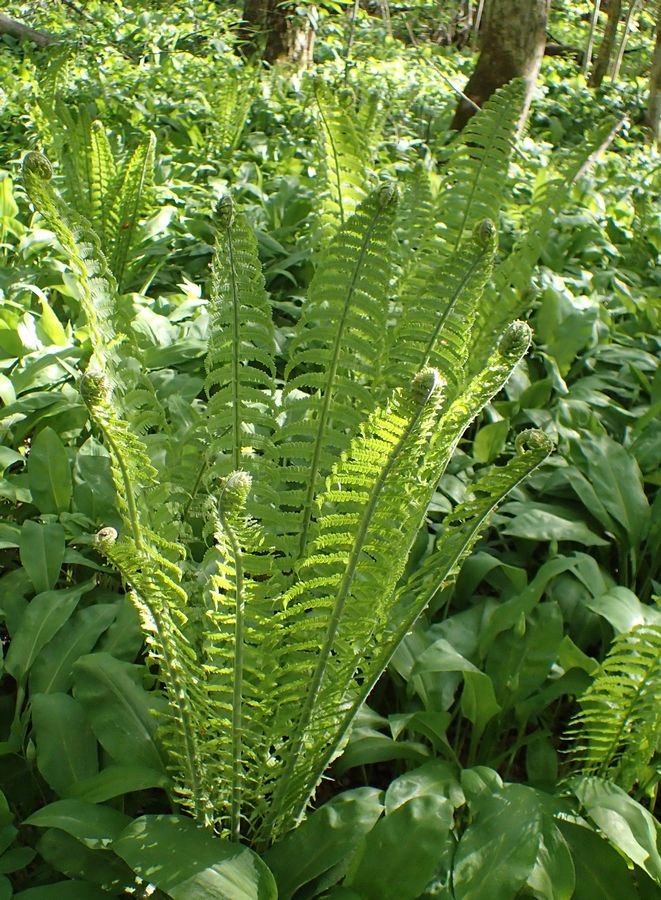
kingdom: Plantae
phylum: Tracheophyta
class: Polypodiopsida
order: Polypodiales
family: Onocleaceae
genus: Matteuccia
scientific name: Matteuccia struthiopteris
